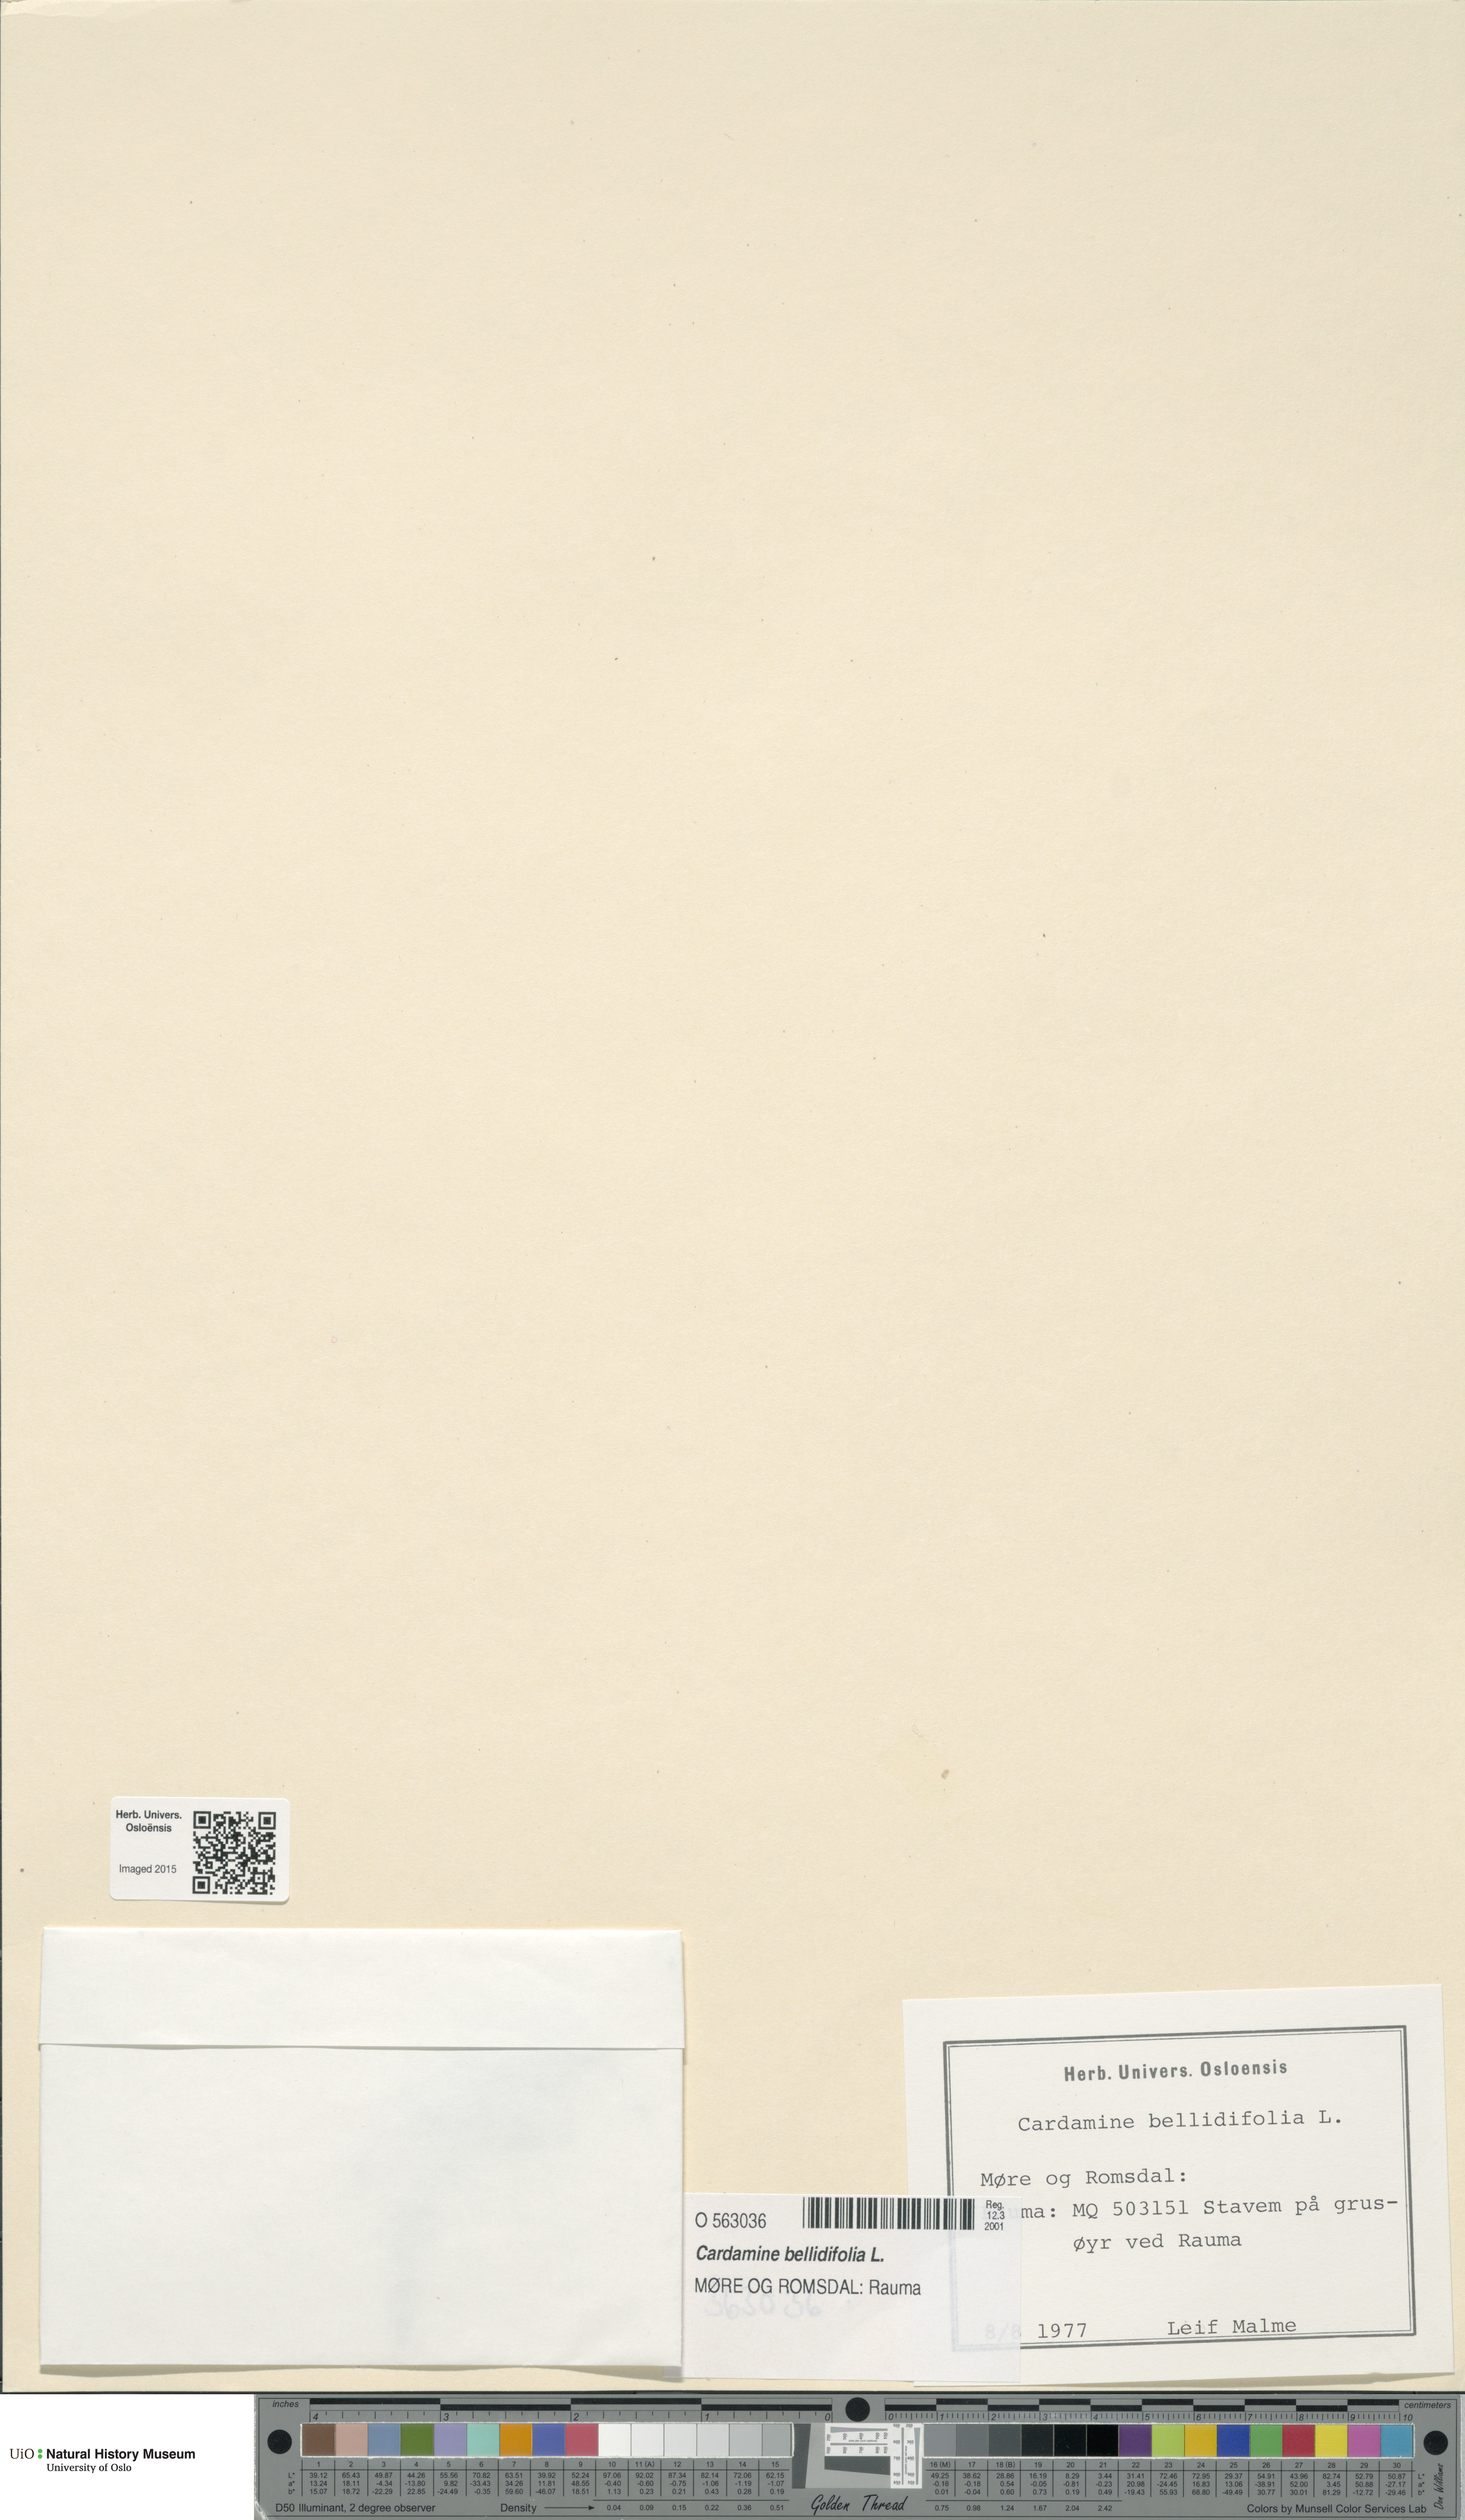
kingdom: Plantae
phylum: Tracheophyta
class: Magnoliopsida
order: Brassicales
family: Brassicaceae
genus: Cardamine
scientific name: Cardamine bellidifolia
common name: Alpine bittercress
